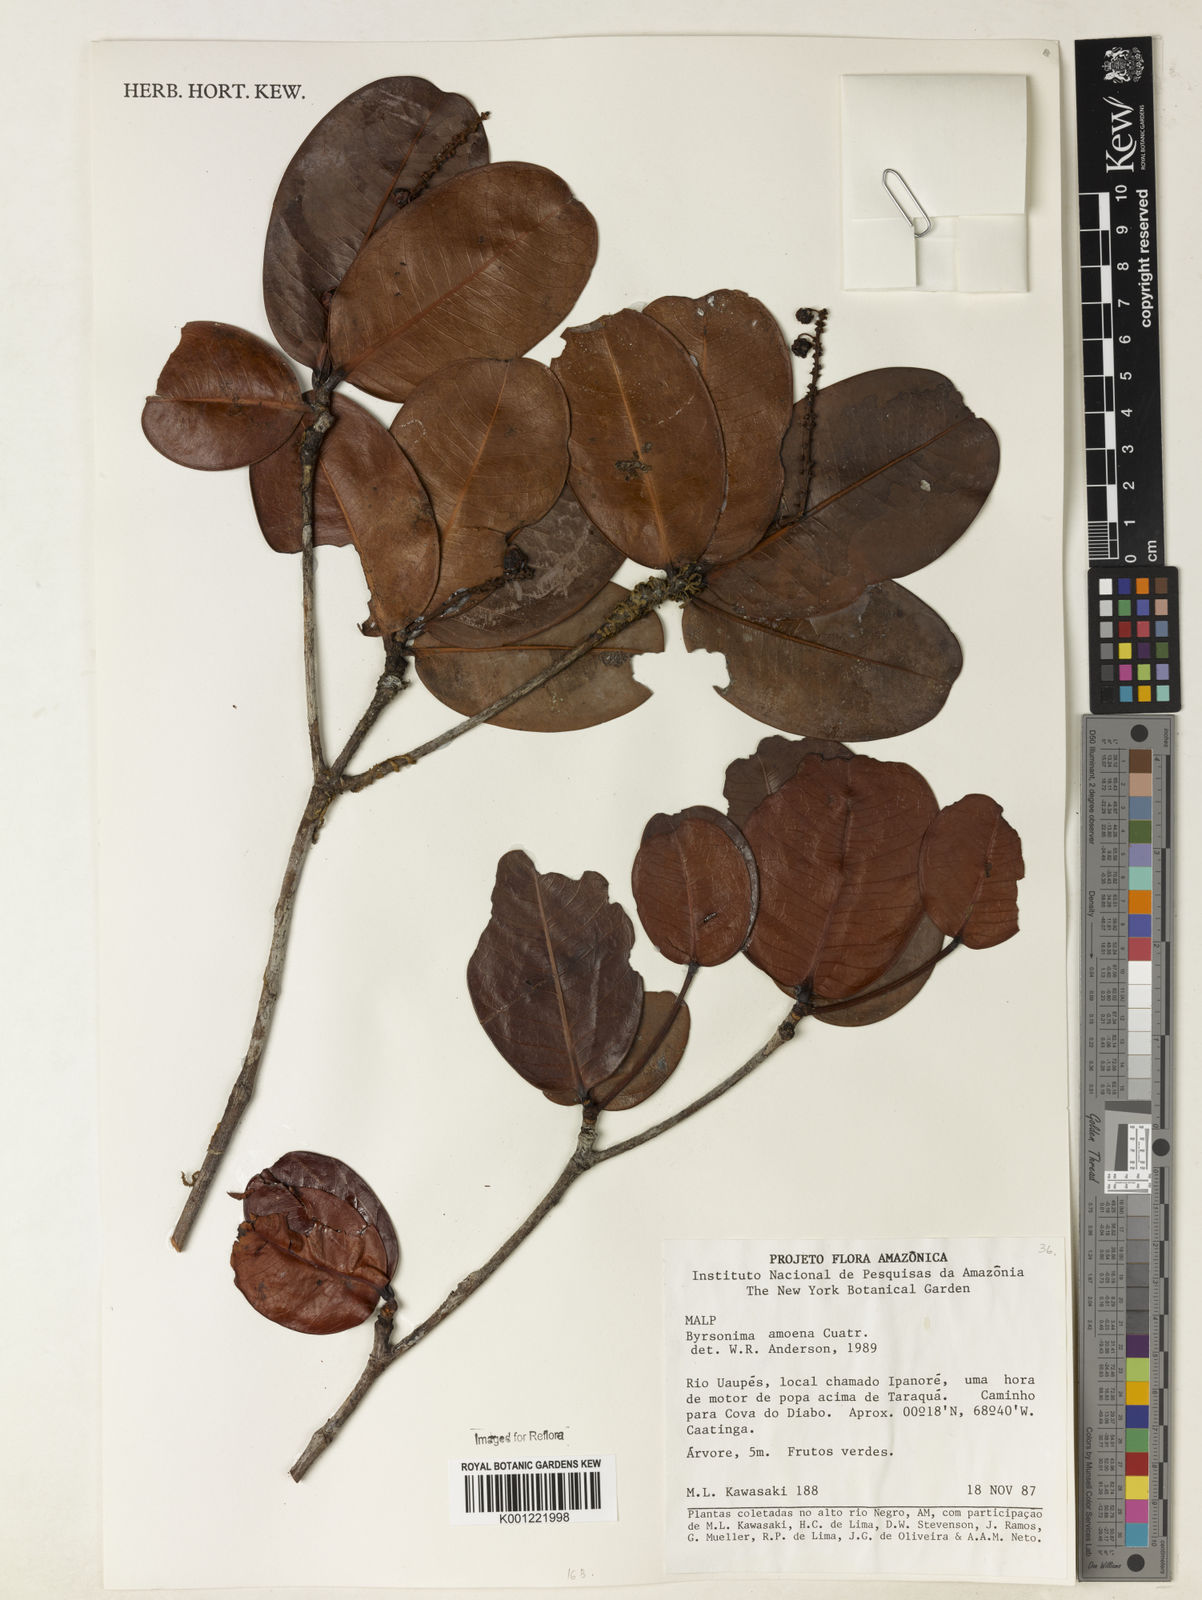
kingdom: Plantae
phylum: Tracheophyta
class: Magnoliopsida
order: Malpighiales
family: Malpighiaceae
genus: Byrsonima
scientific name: Byrsonima amoena
